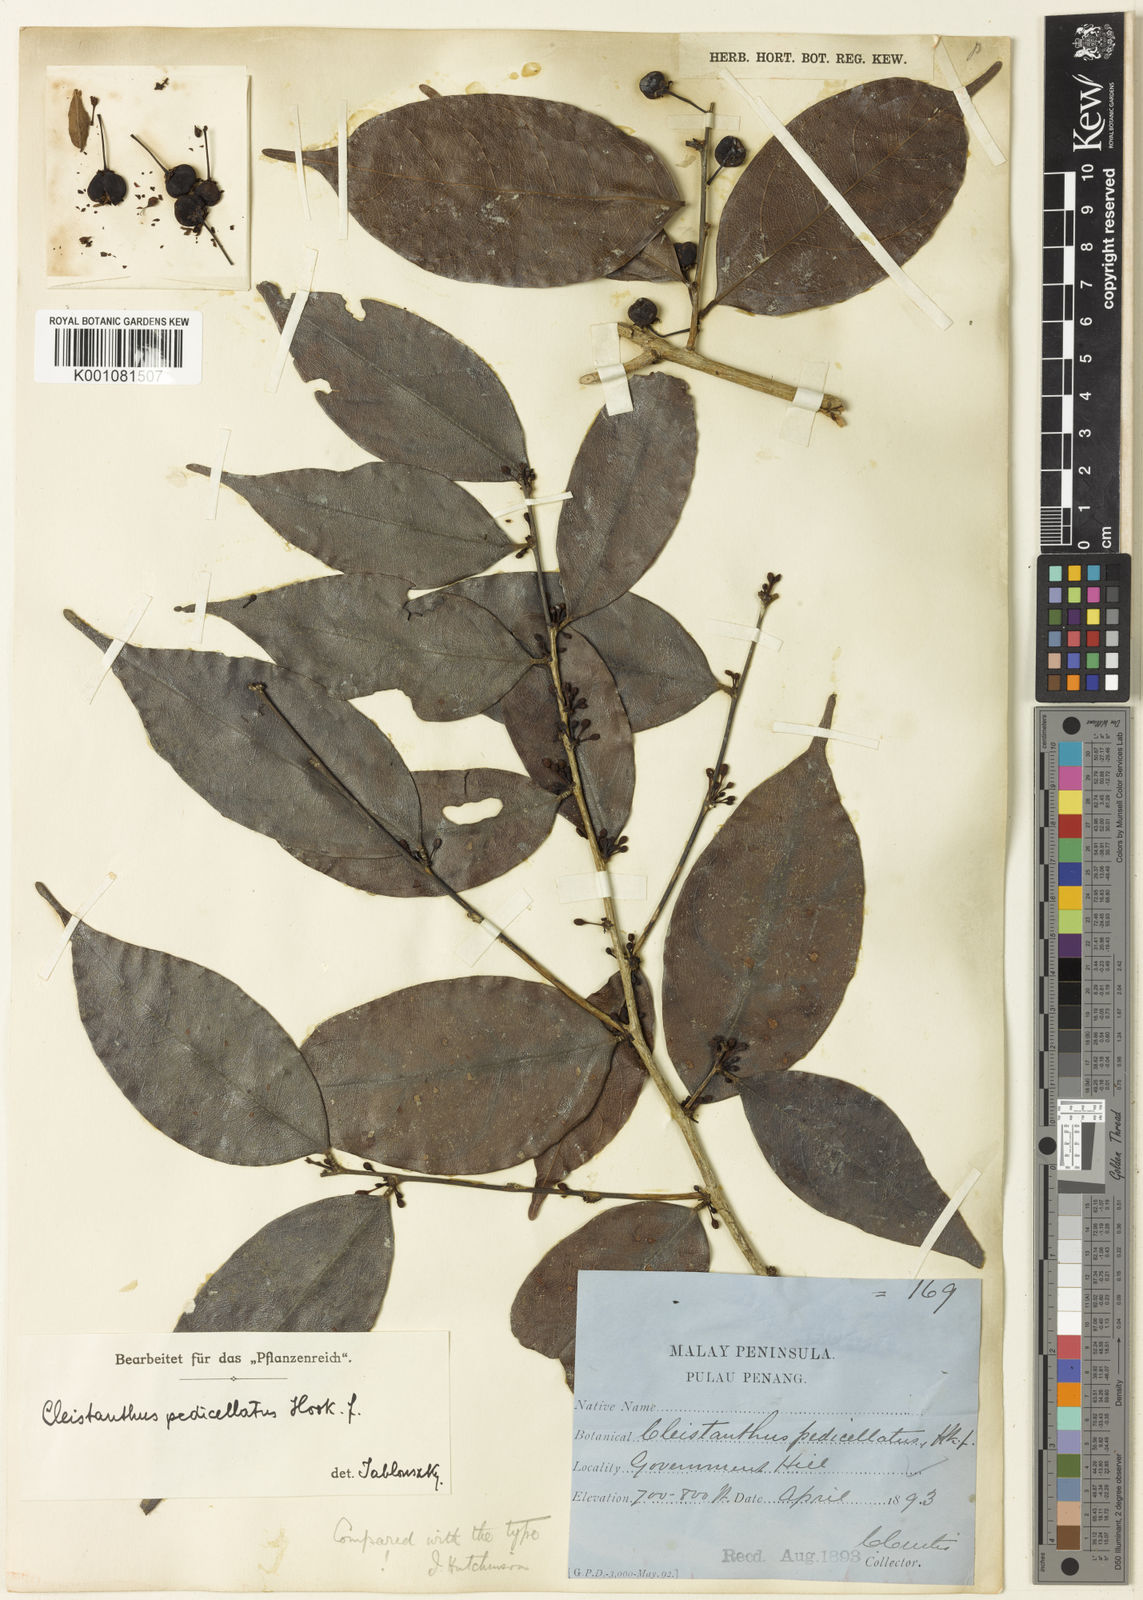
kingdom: Plantae
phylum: Tracheophyta
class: Magnoliopsida
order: Malpighiales
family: Phyllanthaceae
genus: Cleistanthus
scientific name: Cleistanthus pedicellatus
